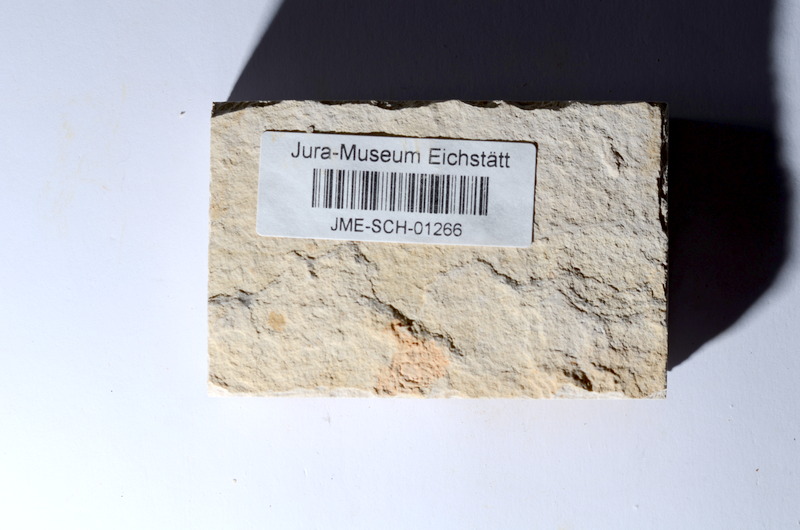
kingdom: Animalia
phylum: Chordata
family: Ascalaboidae
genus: Tharsis
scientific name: Tharsis dubius
